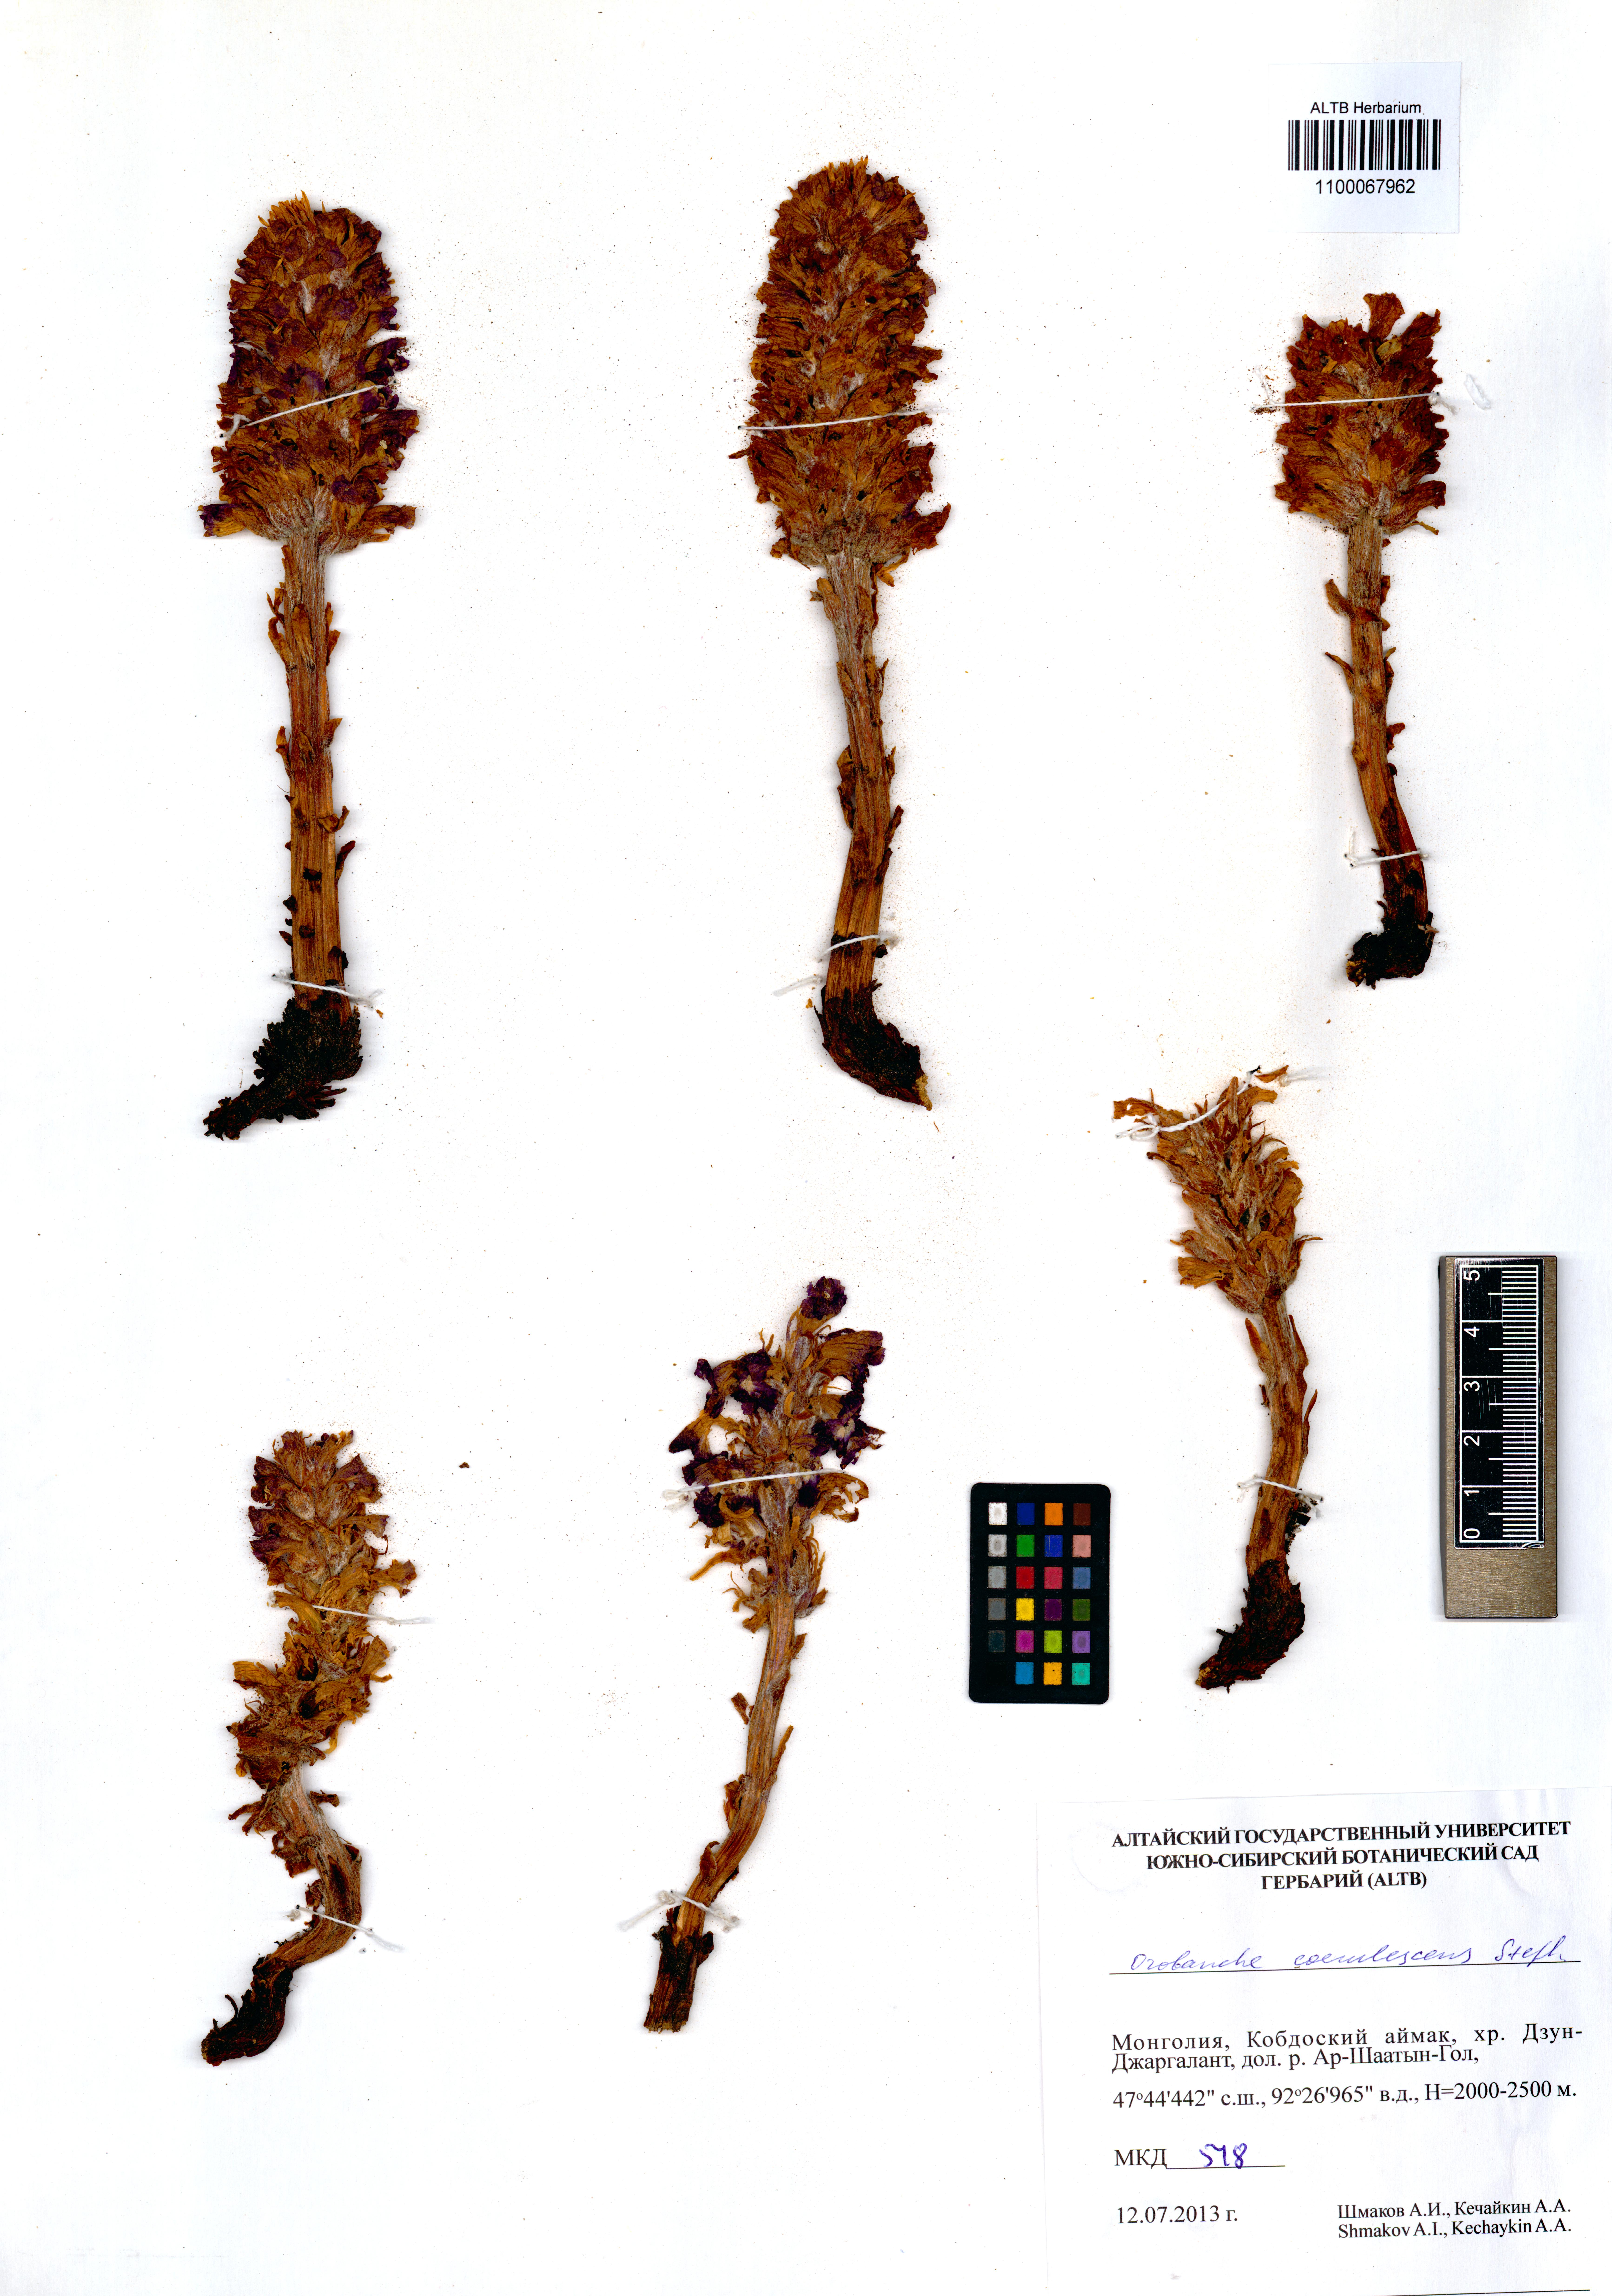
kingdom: Plantae
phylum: Tracheophyta
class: Magnoliopsida
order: Lamiales
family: Orobanchaceae
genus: Orobanche
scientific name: Orobanche coerulescens
